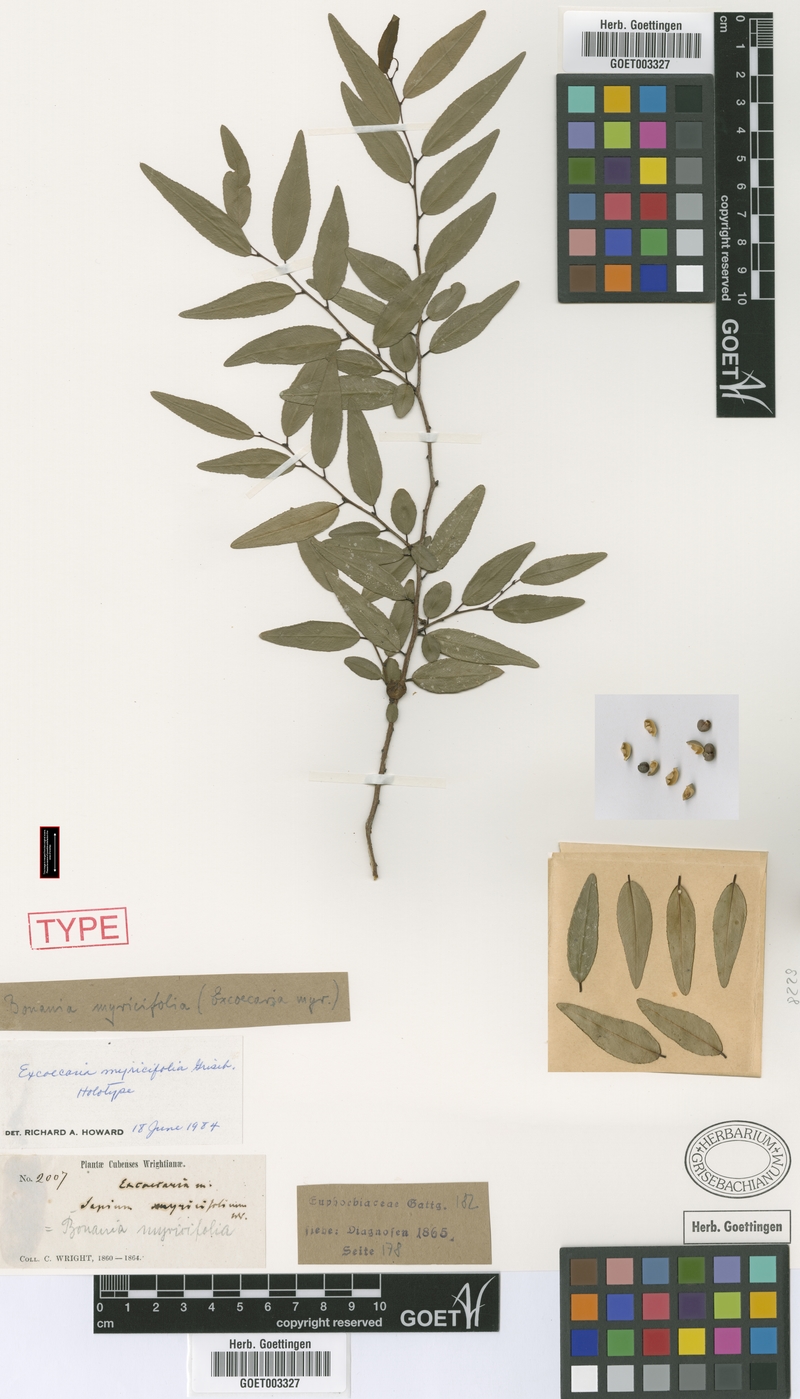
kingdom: Plantae
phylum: Tracheophyta
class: Magnoliopsida
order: Malpighiales
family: Euphorbiaceae
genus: Bonania
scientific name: Bonania myricifolia
